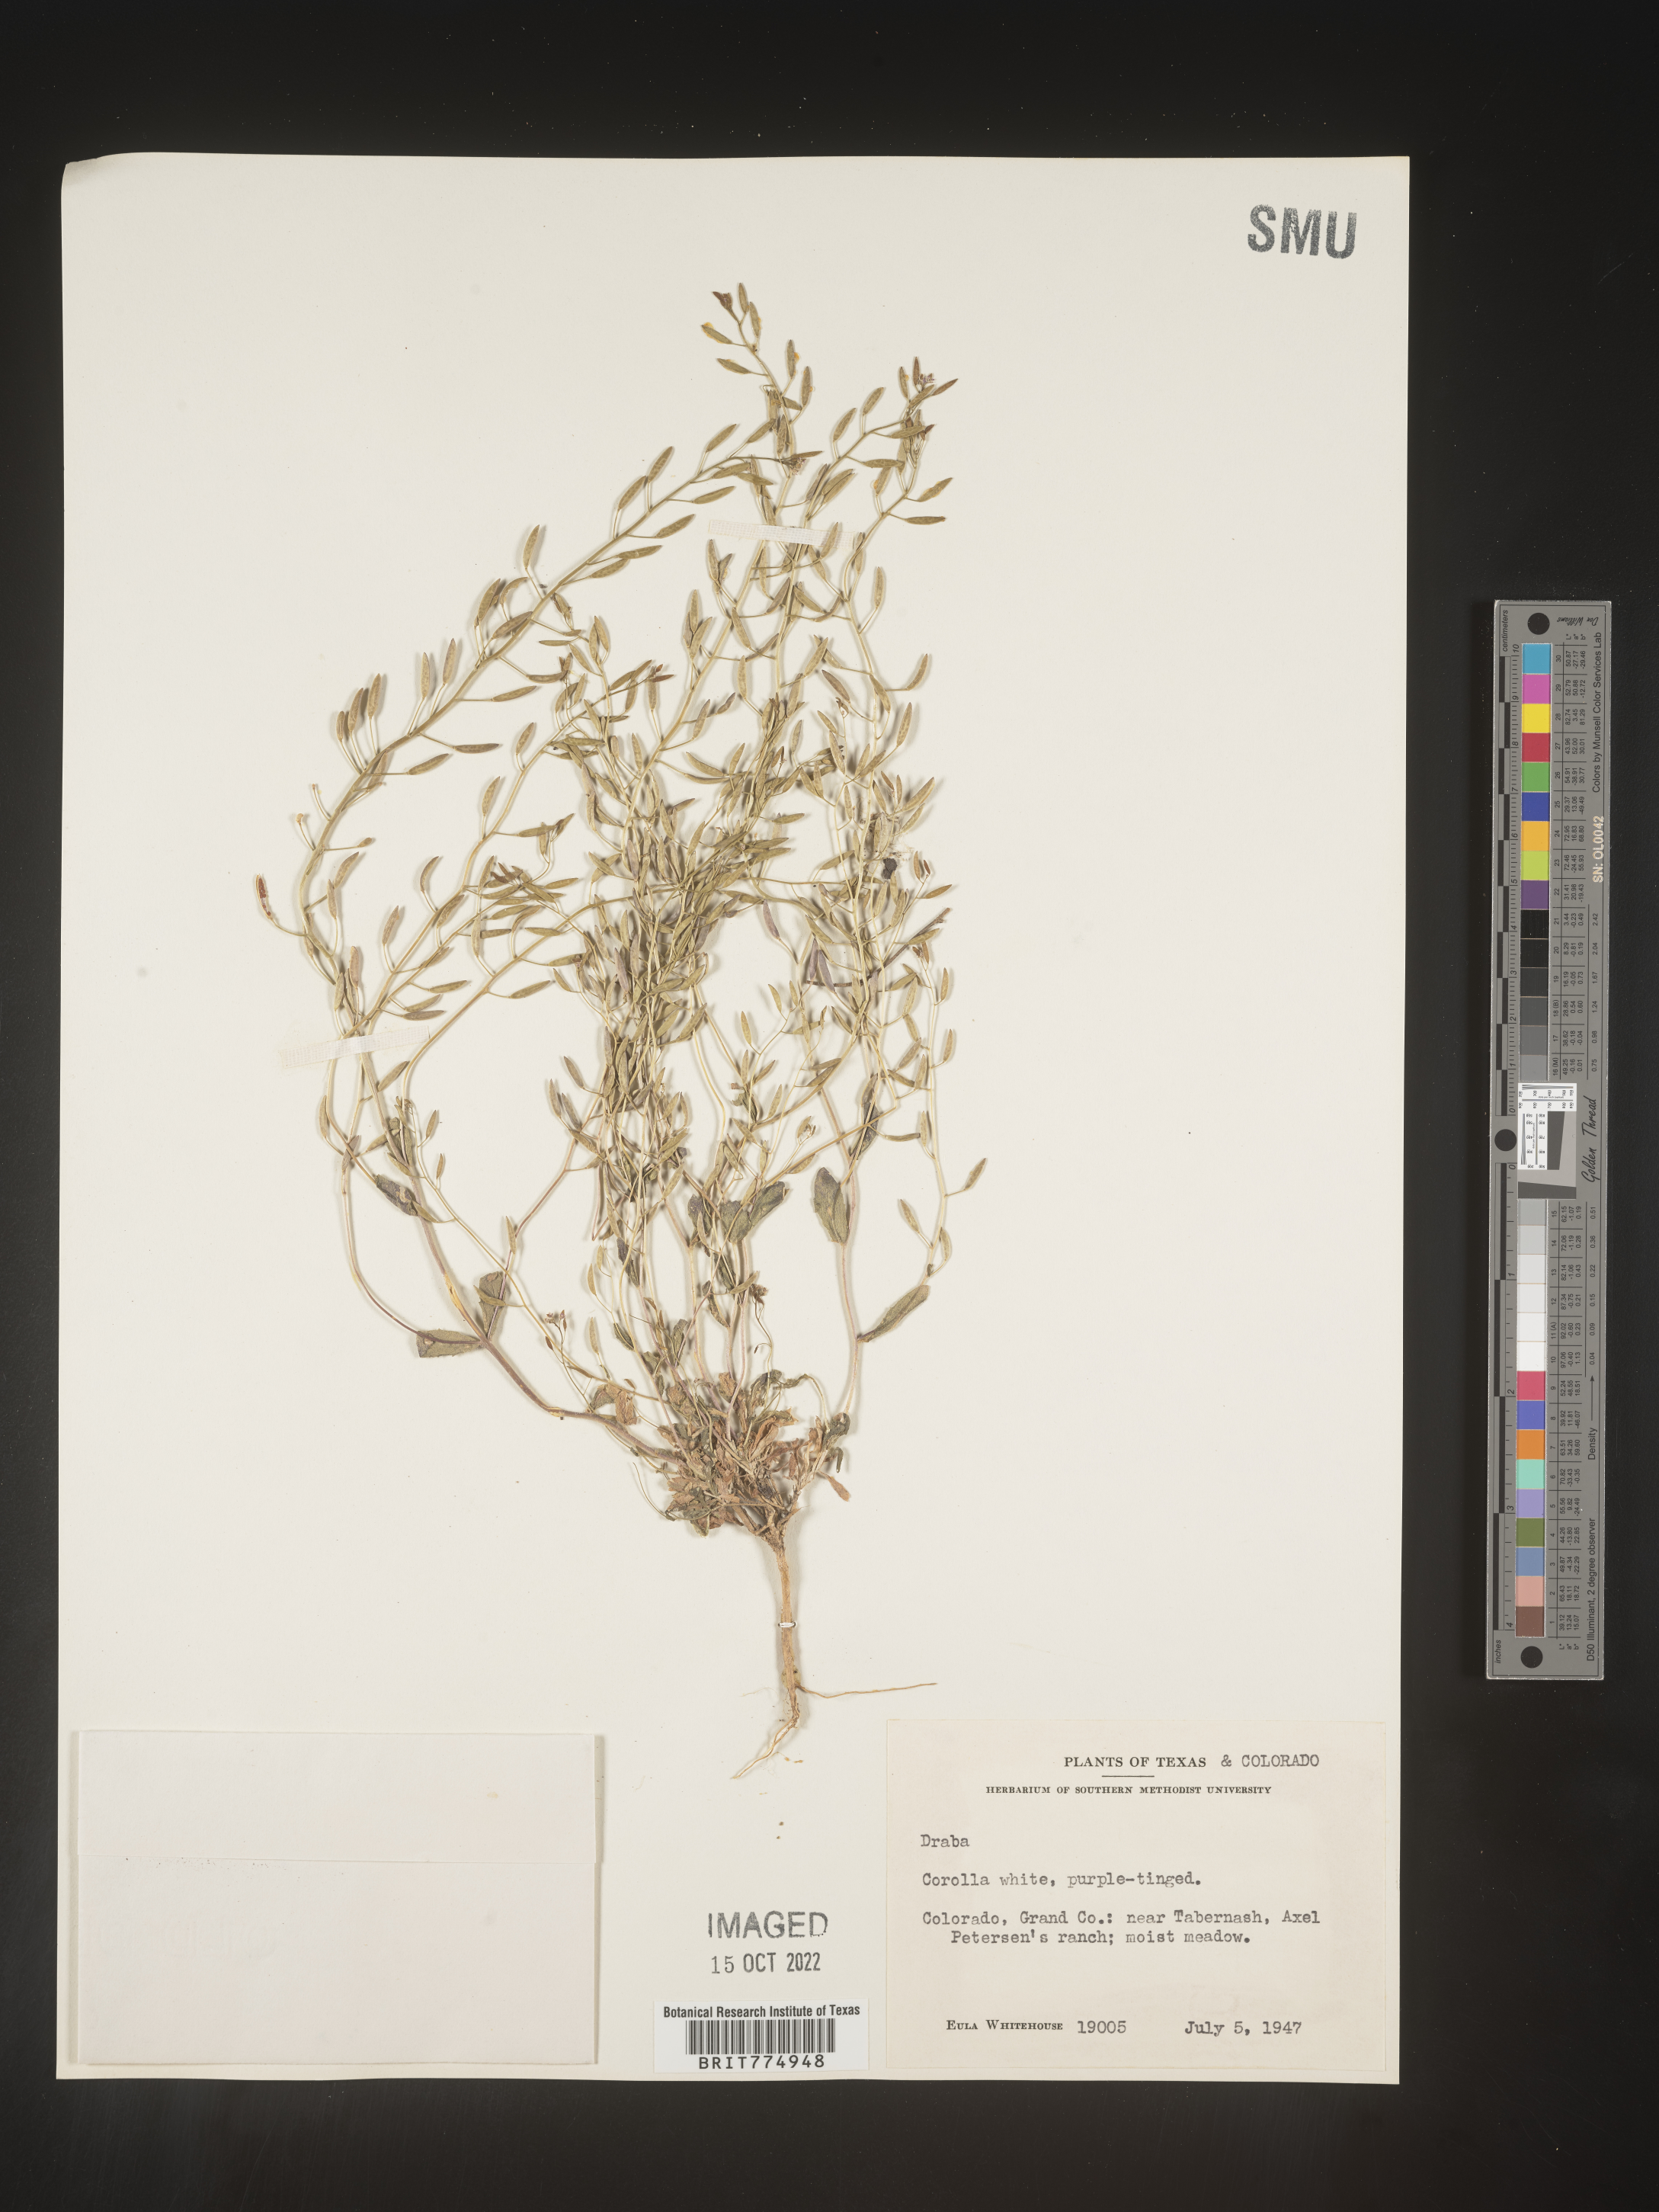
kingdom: Plantae
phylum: Tracheophyta
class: Magnoliopsida
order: Brassicales
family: Brassicaceae
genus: Draba
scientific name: Draba
